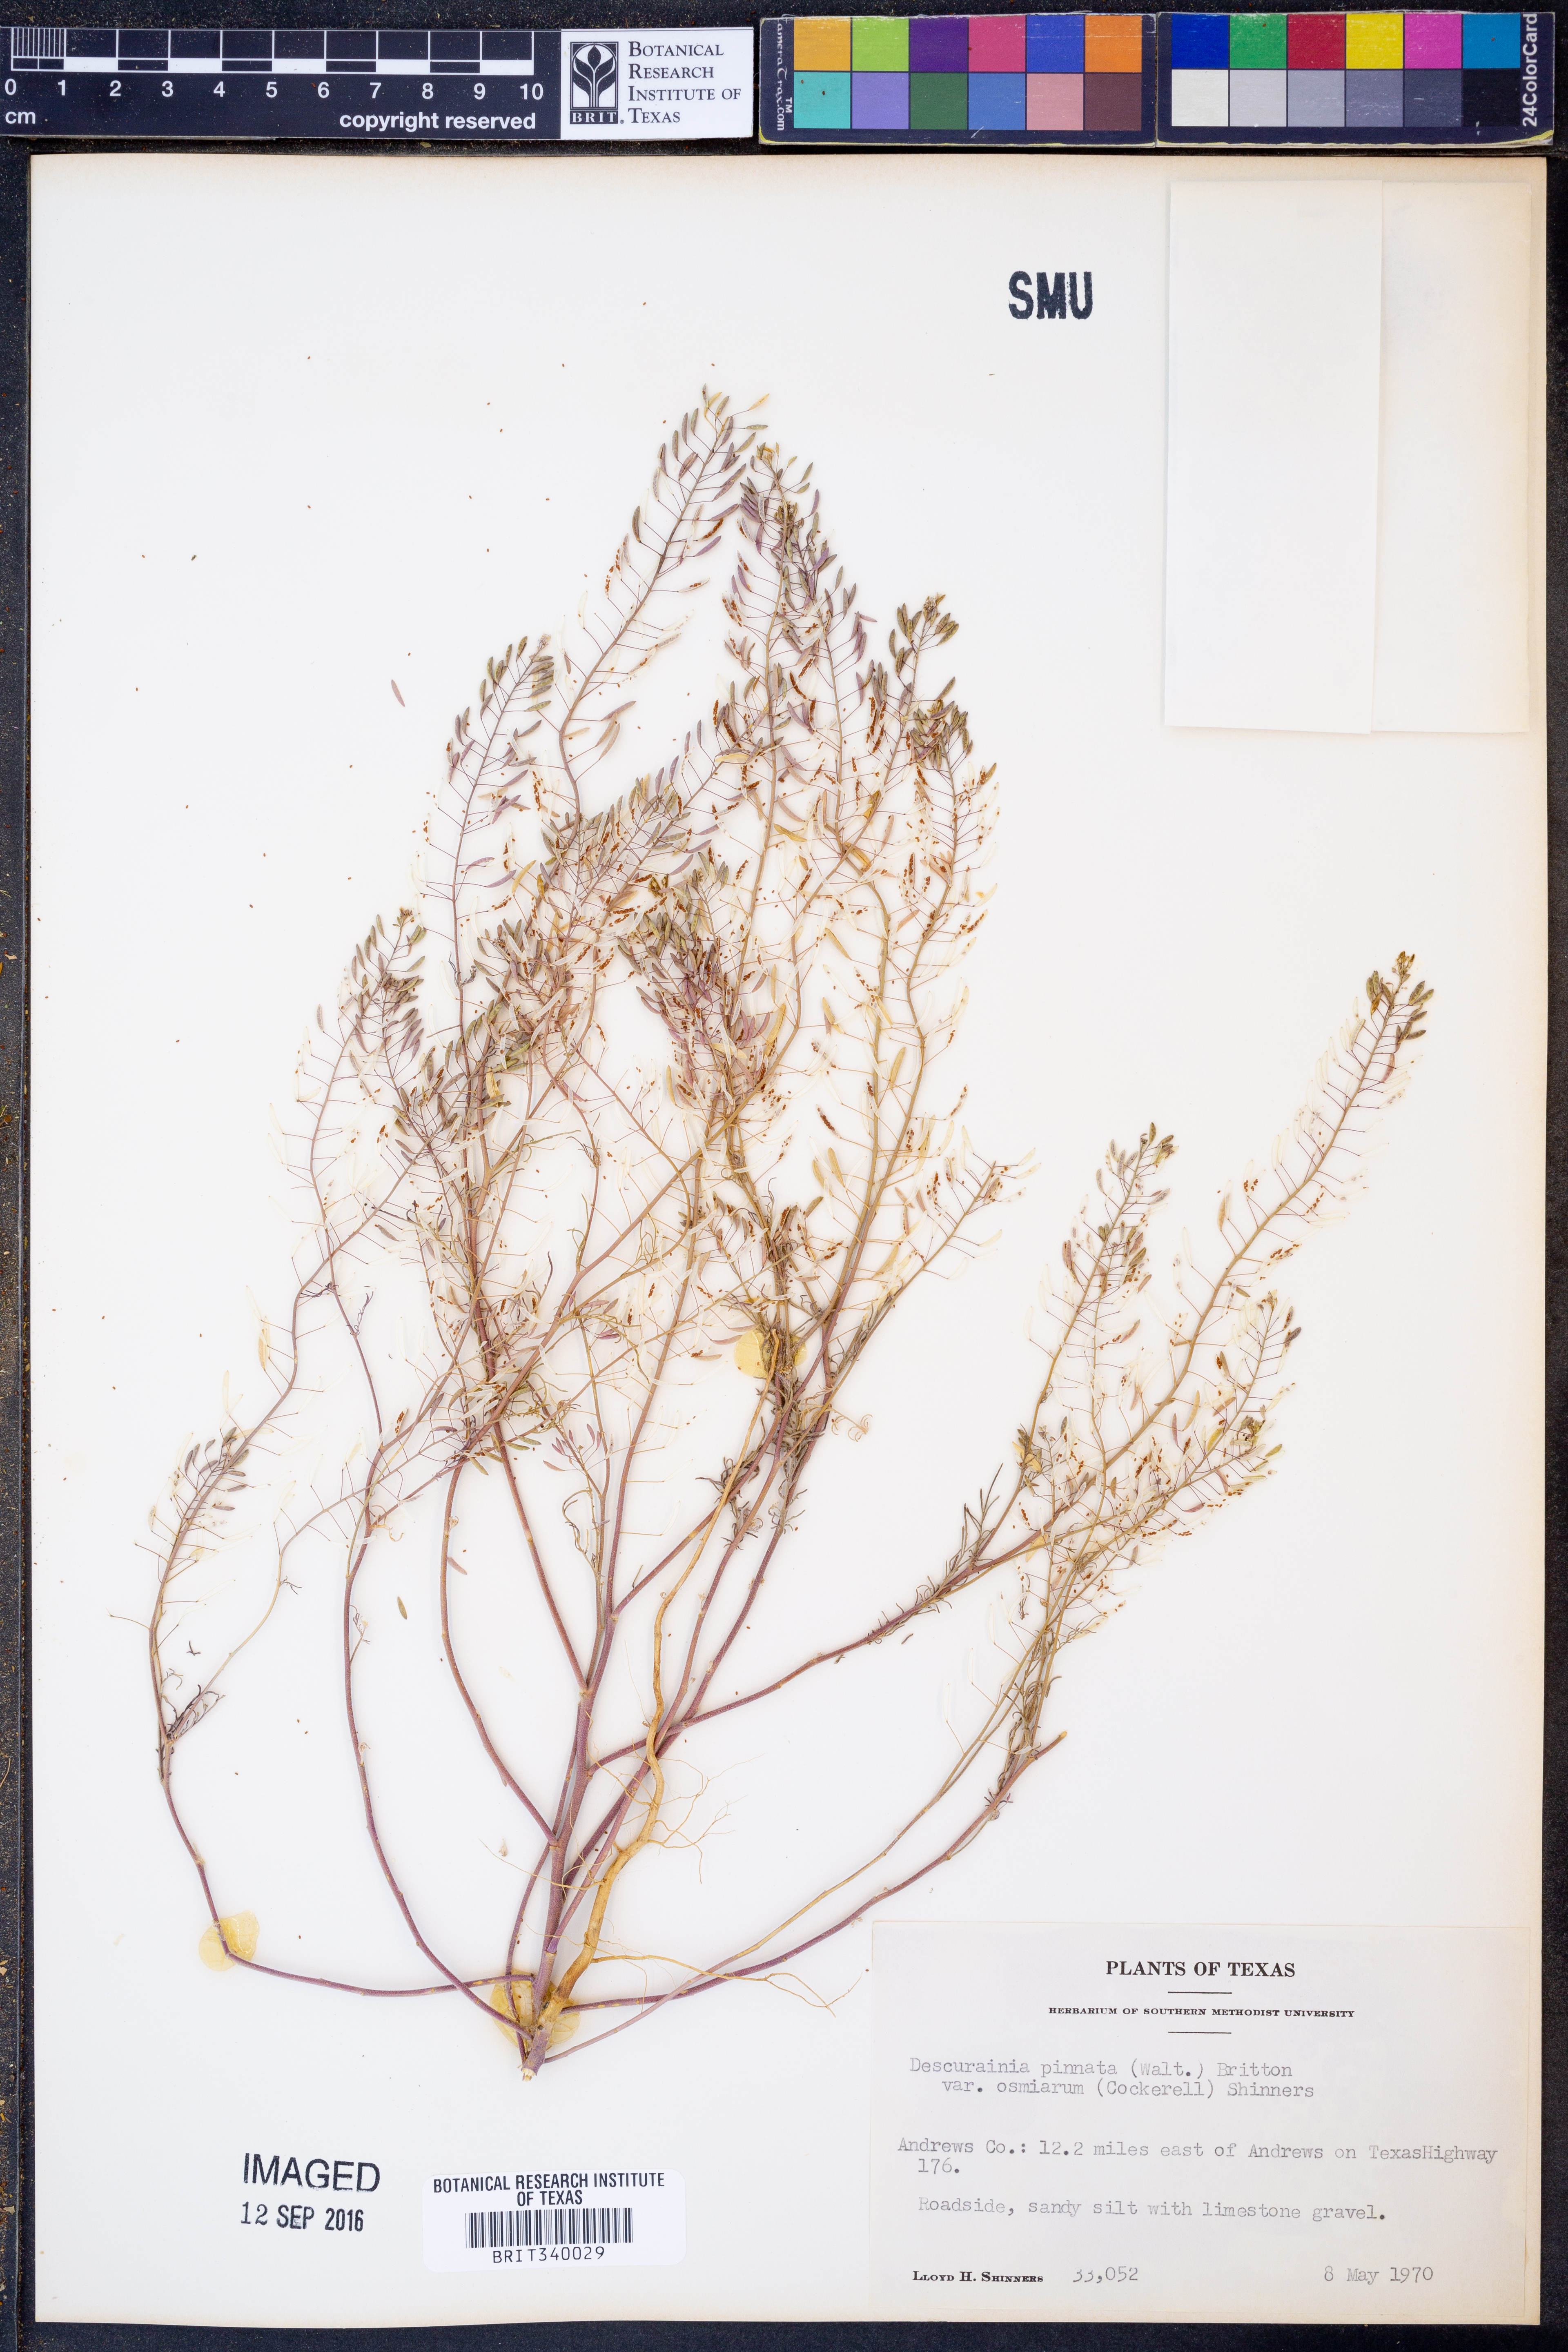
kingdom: Plantae
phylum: Tracheophyta
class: Magnoliopsida
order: Brassicales
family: Brassicaceae
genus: Descurainia
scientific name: Descurainia pinnata
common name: Western tansy mustard
